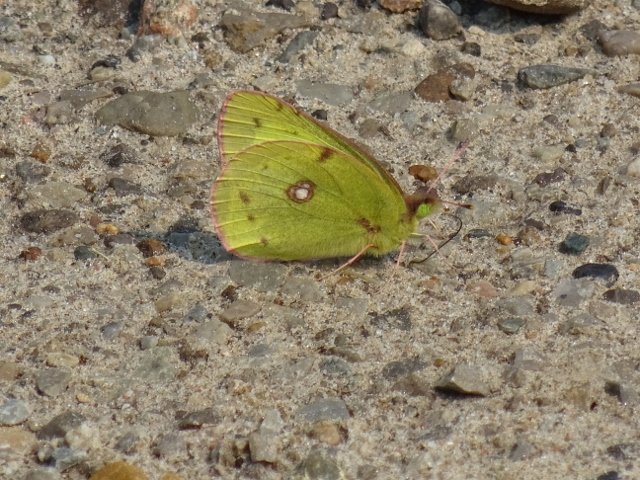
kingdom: Animalia
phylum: Arthropoda
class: Insecta
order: Lepidoptera
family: Pieridae
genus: Colias
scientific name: Colias philodice
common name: Clouded Sulphur
